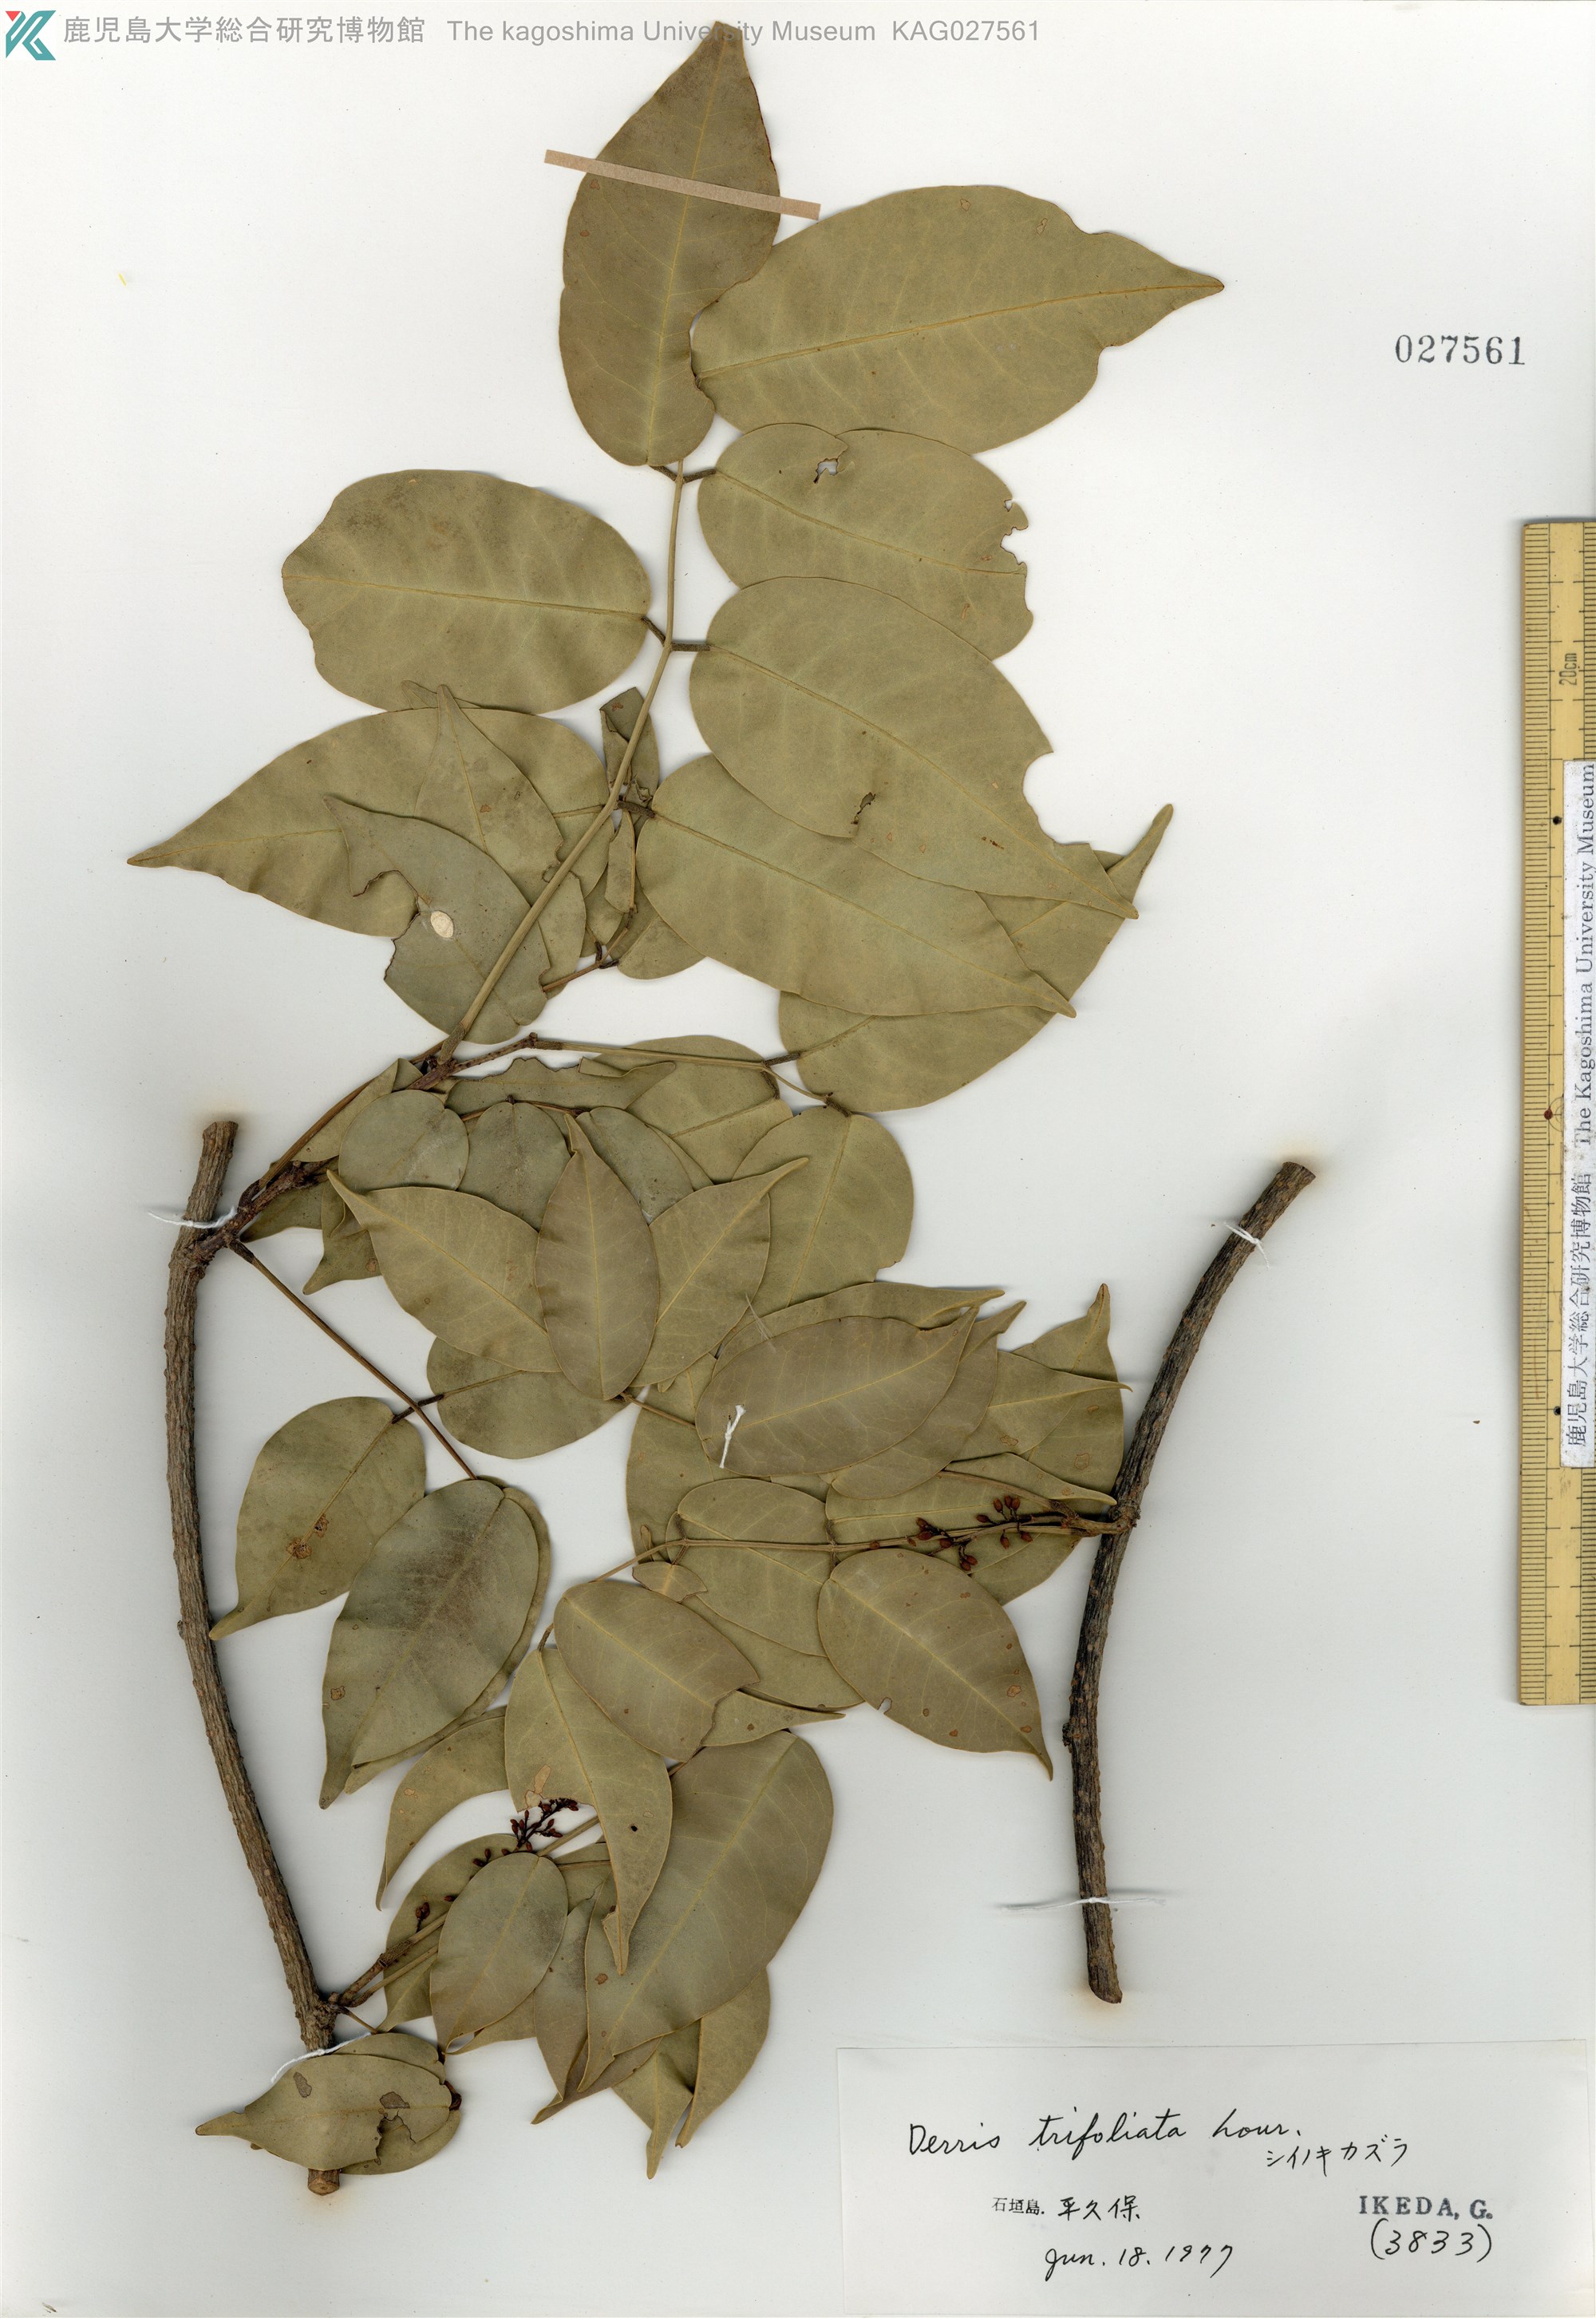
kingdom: Plantae
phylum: Tracheophyta
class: Magnoliopsida
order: Fabales
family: Fabaceae
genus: Derris
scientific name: Derris trifoliata
